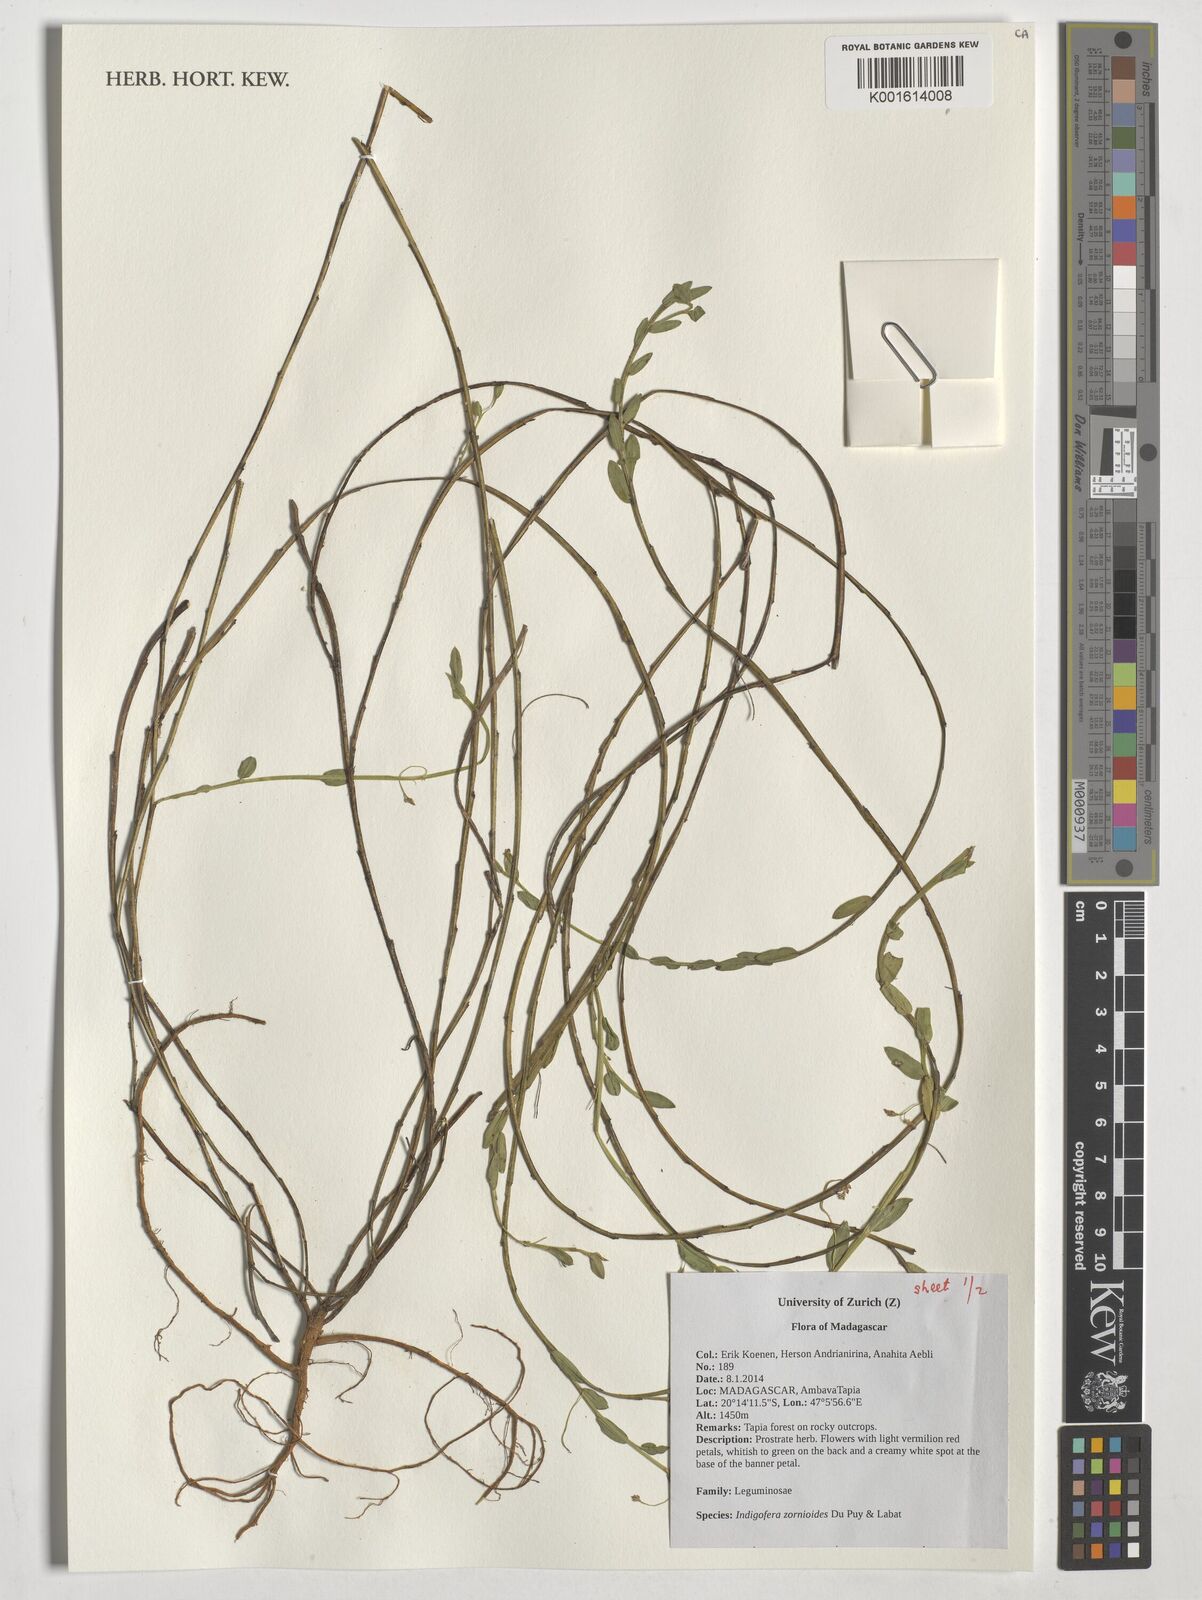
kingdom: Plantae
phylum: Tracheophyta
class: Magnoliopsida
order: Fabales
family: Fabaceae
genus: Indigofera
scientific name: Indigofera zornioides
